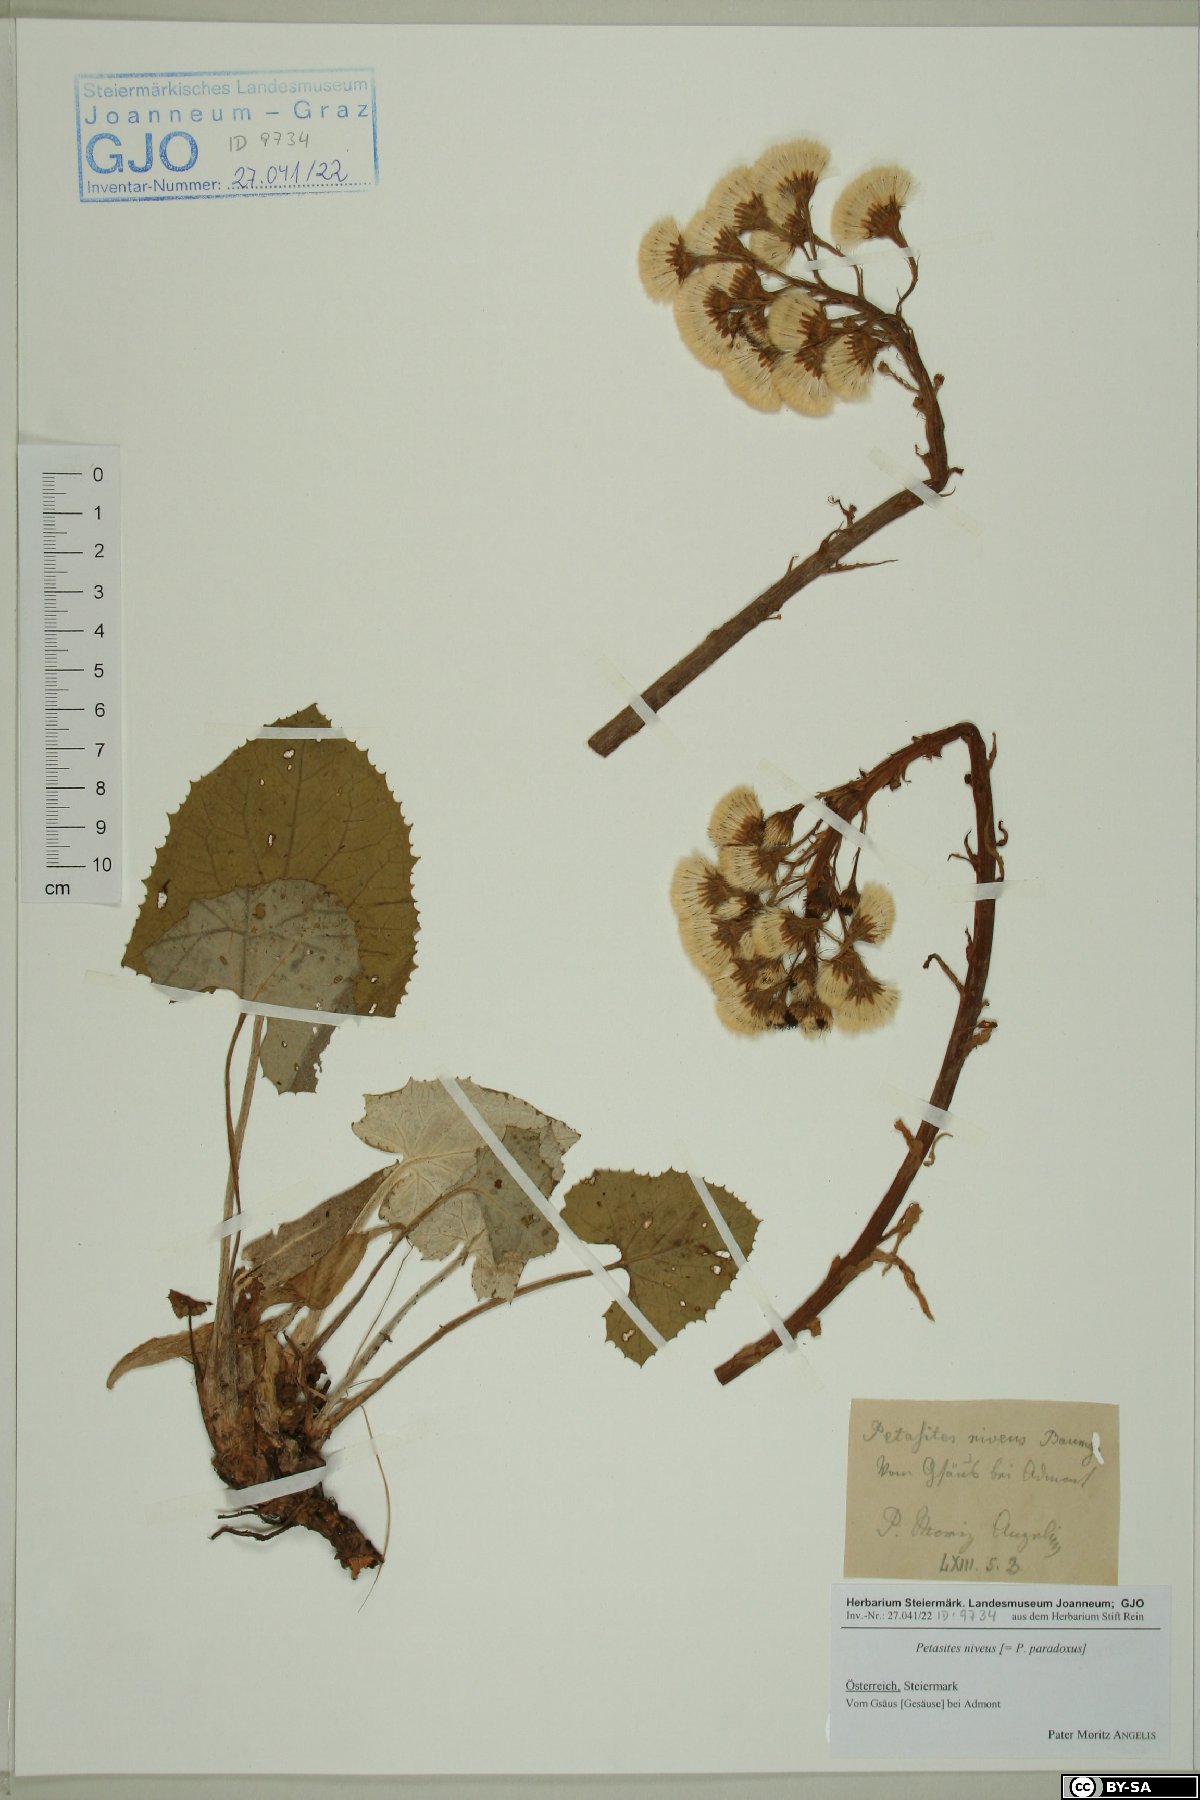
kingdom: Plantae
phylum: Tracheophyta
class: Magnoliopsida
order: Asterales
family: Asteraceae
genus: Petasites
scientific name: Petasites paradoxus
